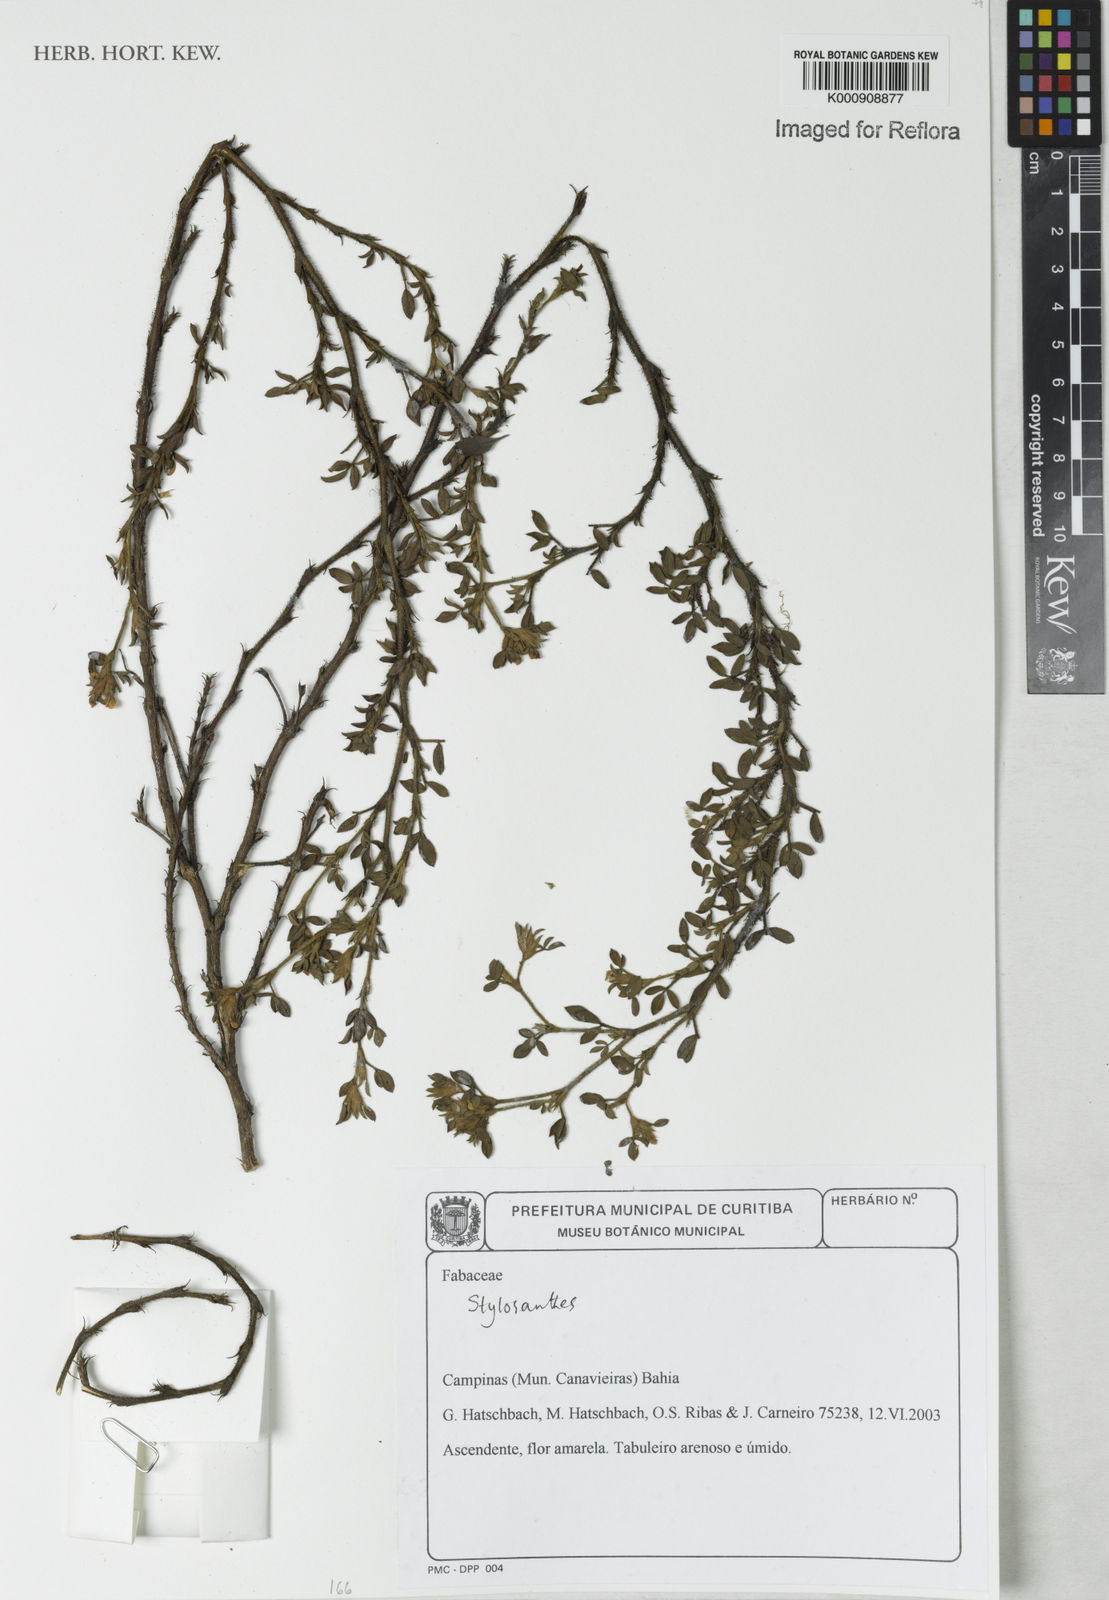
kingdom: Plantae
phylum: Tracheophyta
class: Magnoliopsida
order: Fabales
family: Fabaceae
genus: Stylosanthes
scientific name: Stylosanthes
